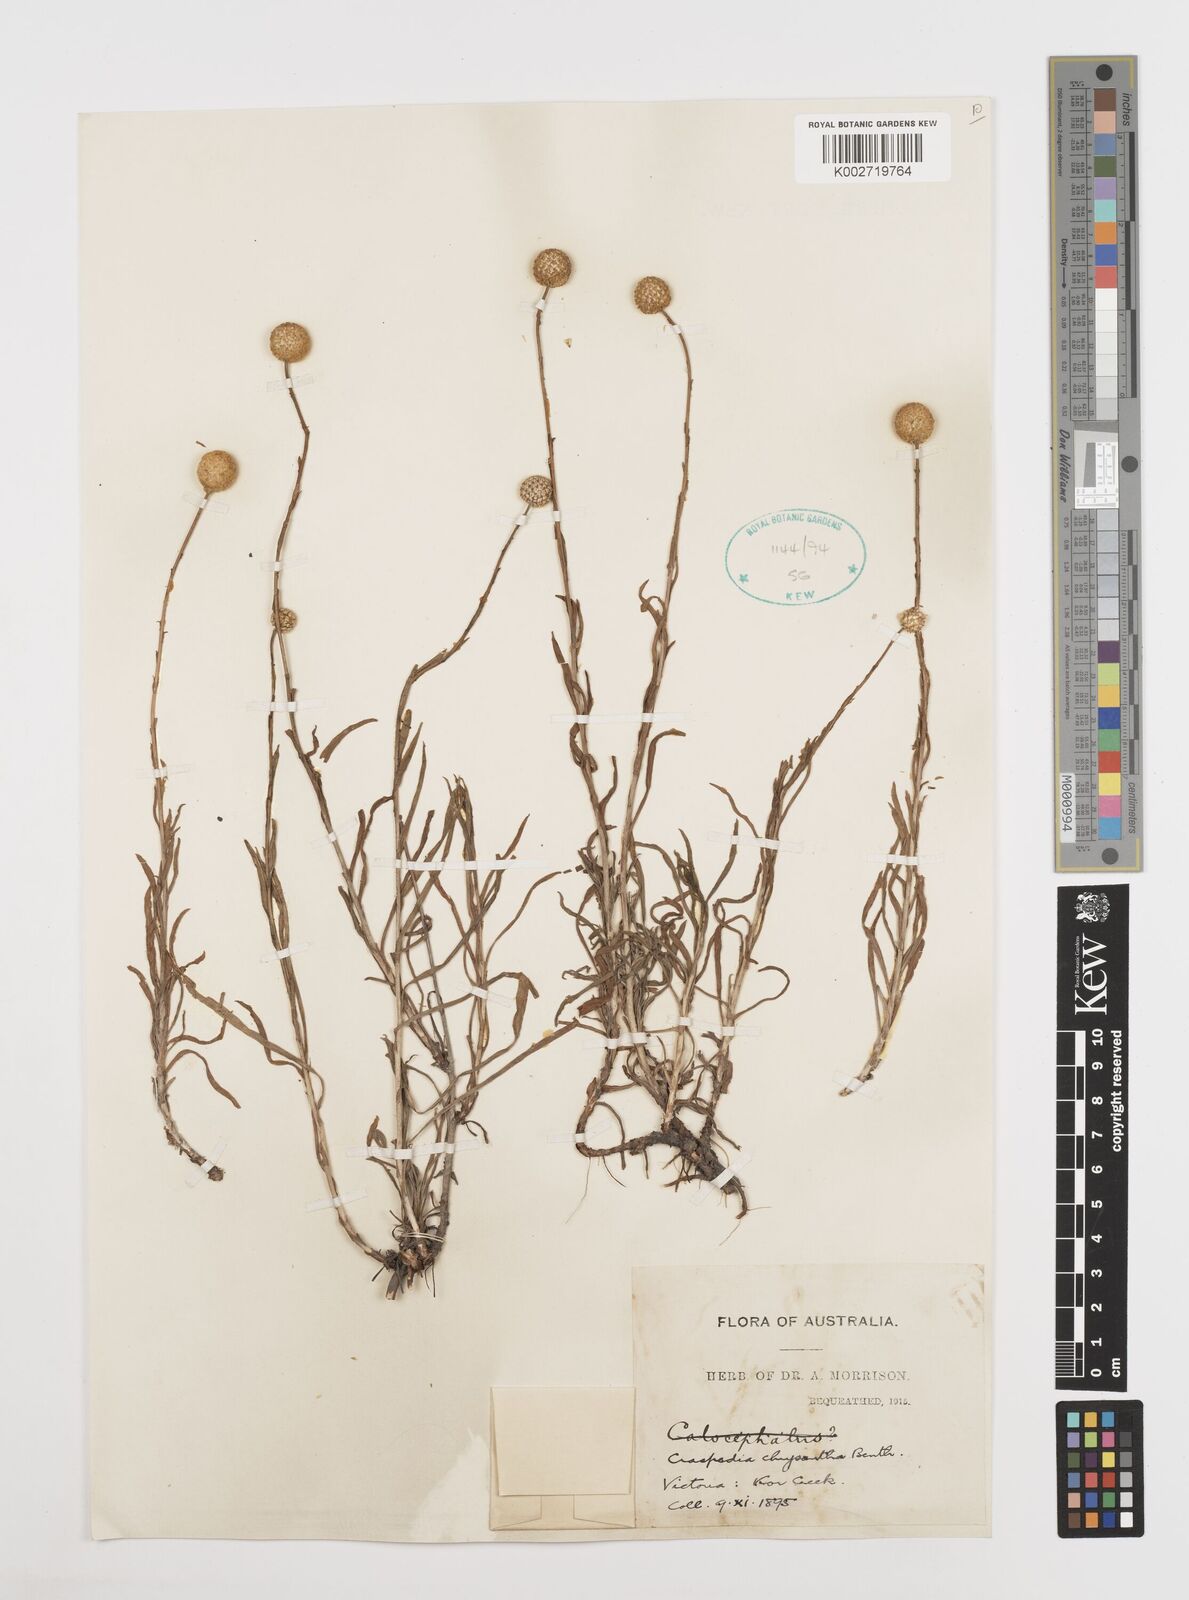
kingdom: Plantae
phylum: Tracheophyta
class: Magnoliopsida
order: Asterales
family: Asteraceae
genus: Pycnosorus
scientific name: Pycnosorus chrysanthus
